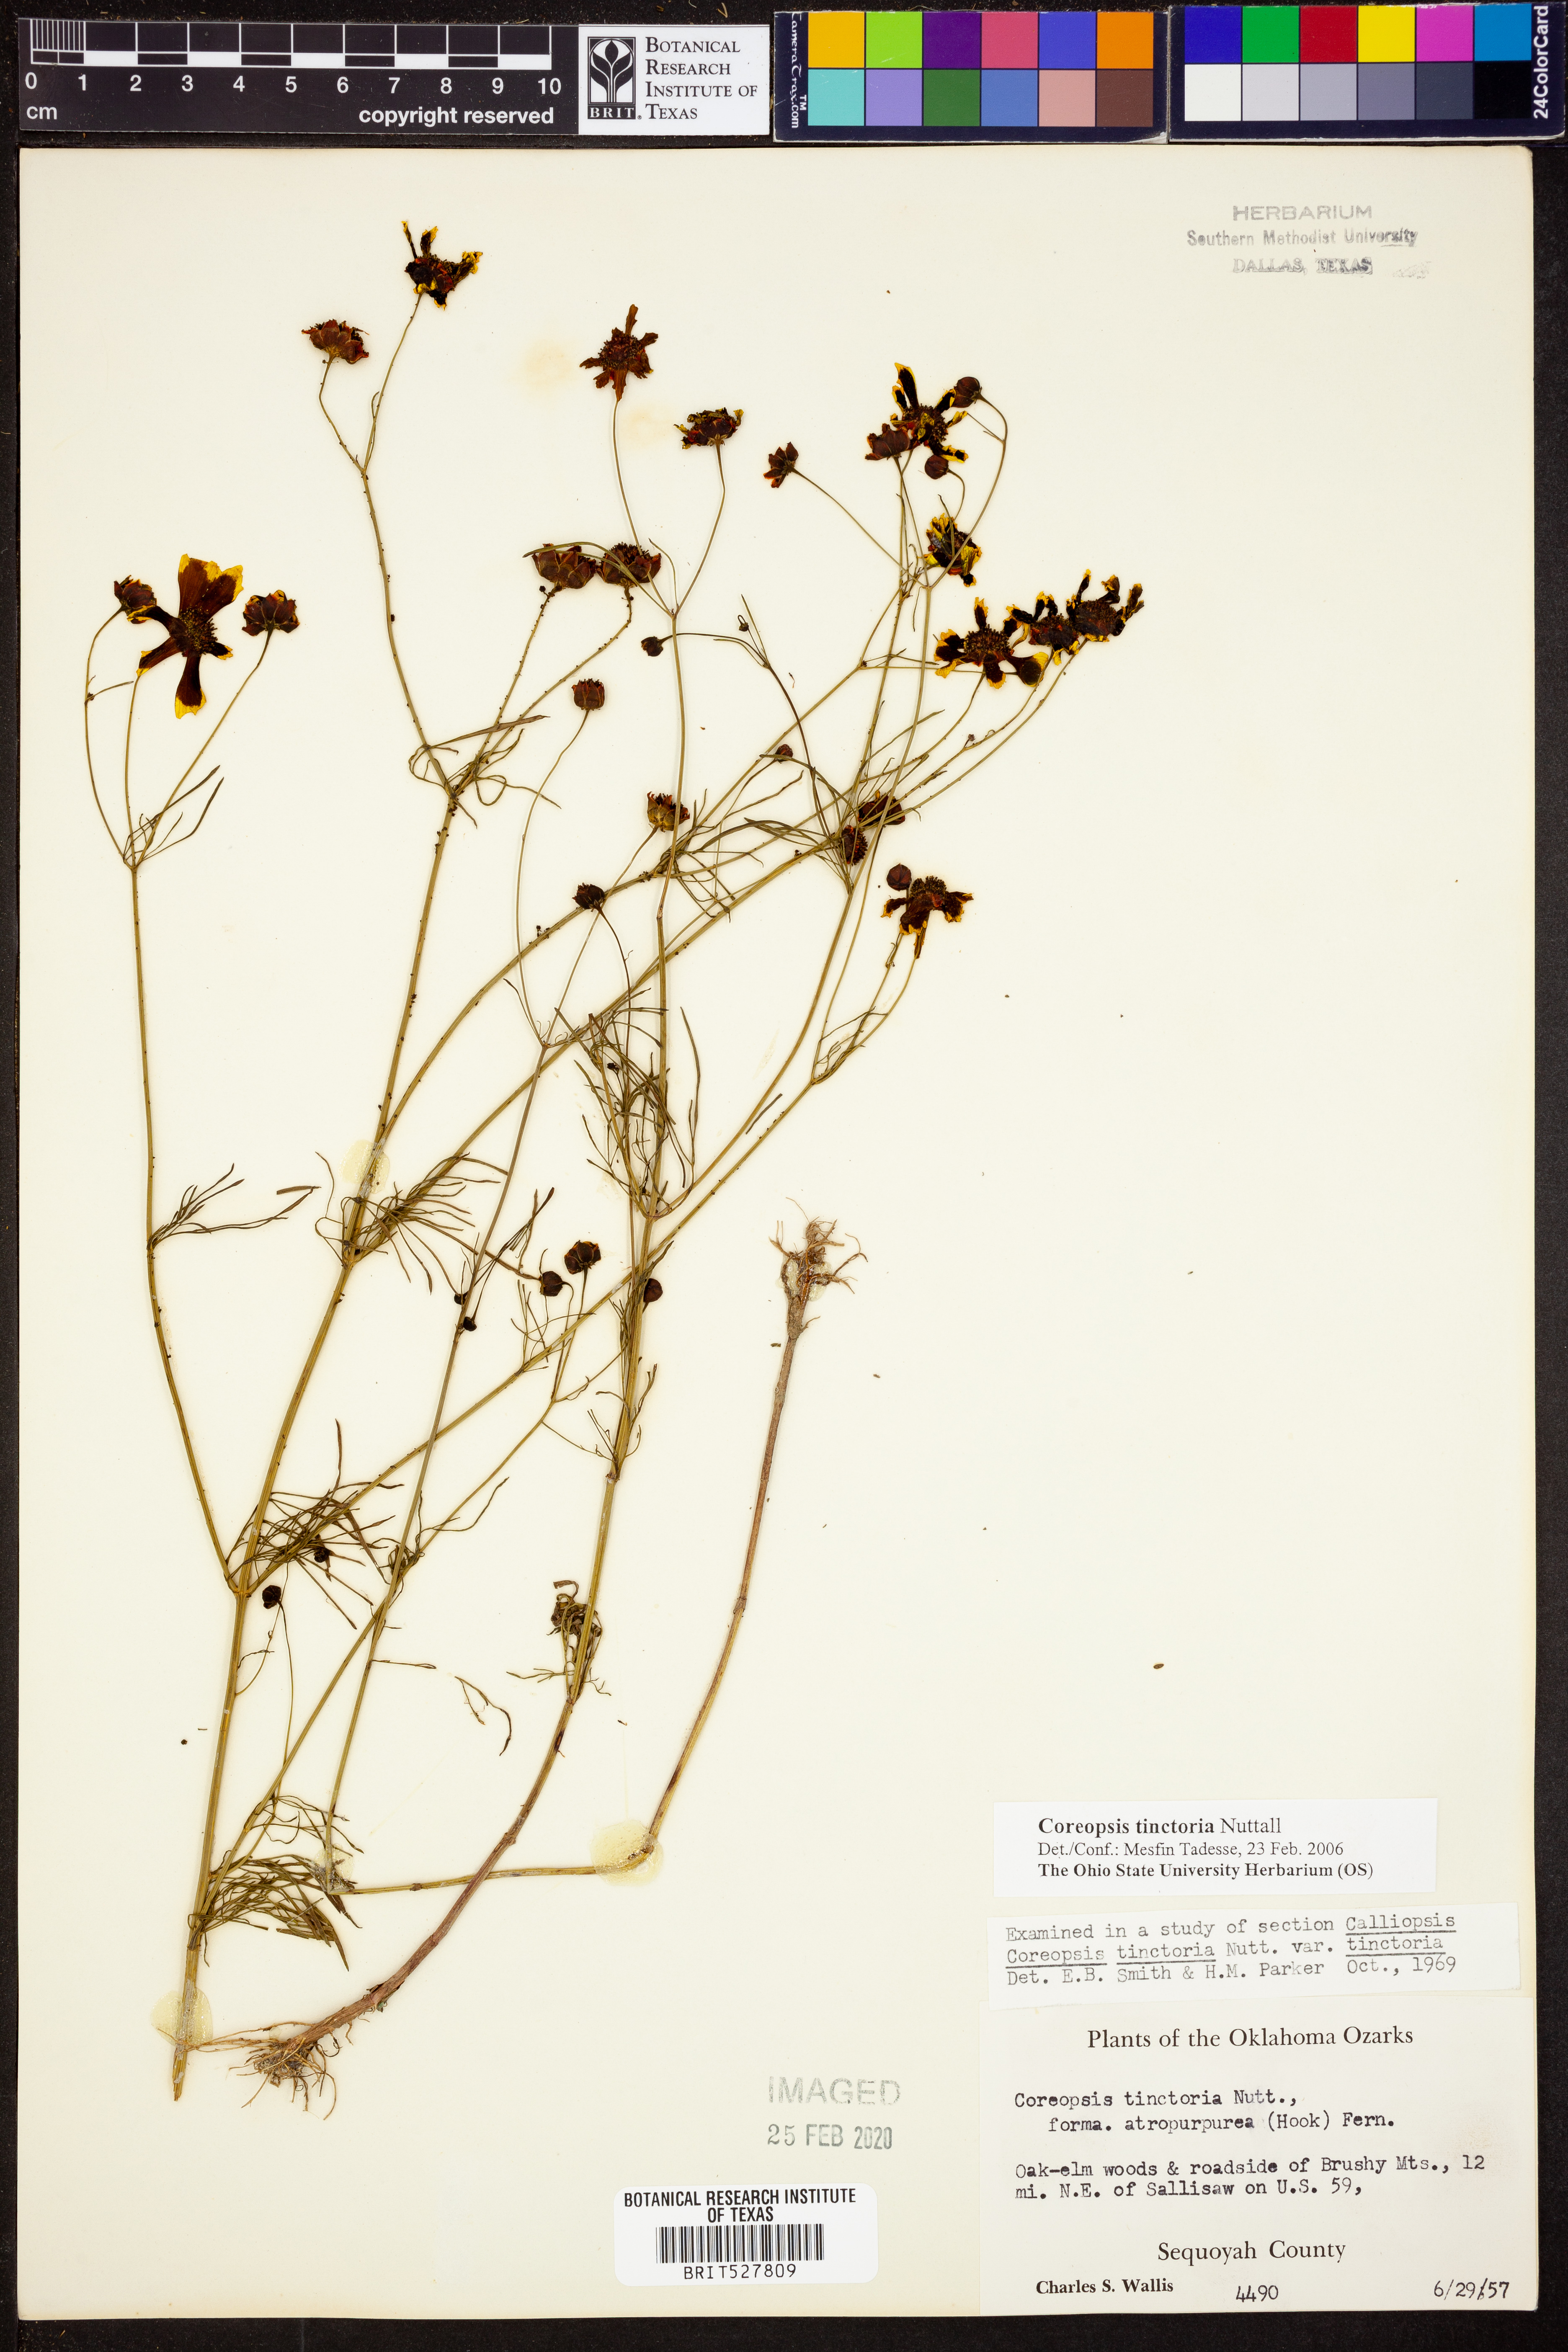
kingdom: Plantae
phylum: Tracheophyta
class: Magnoliopsida
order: Asterales
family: Asteraceae
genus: Coreopsis
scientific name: Coreopsis tinctoria
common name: Garden tickseed
